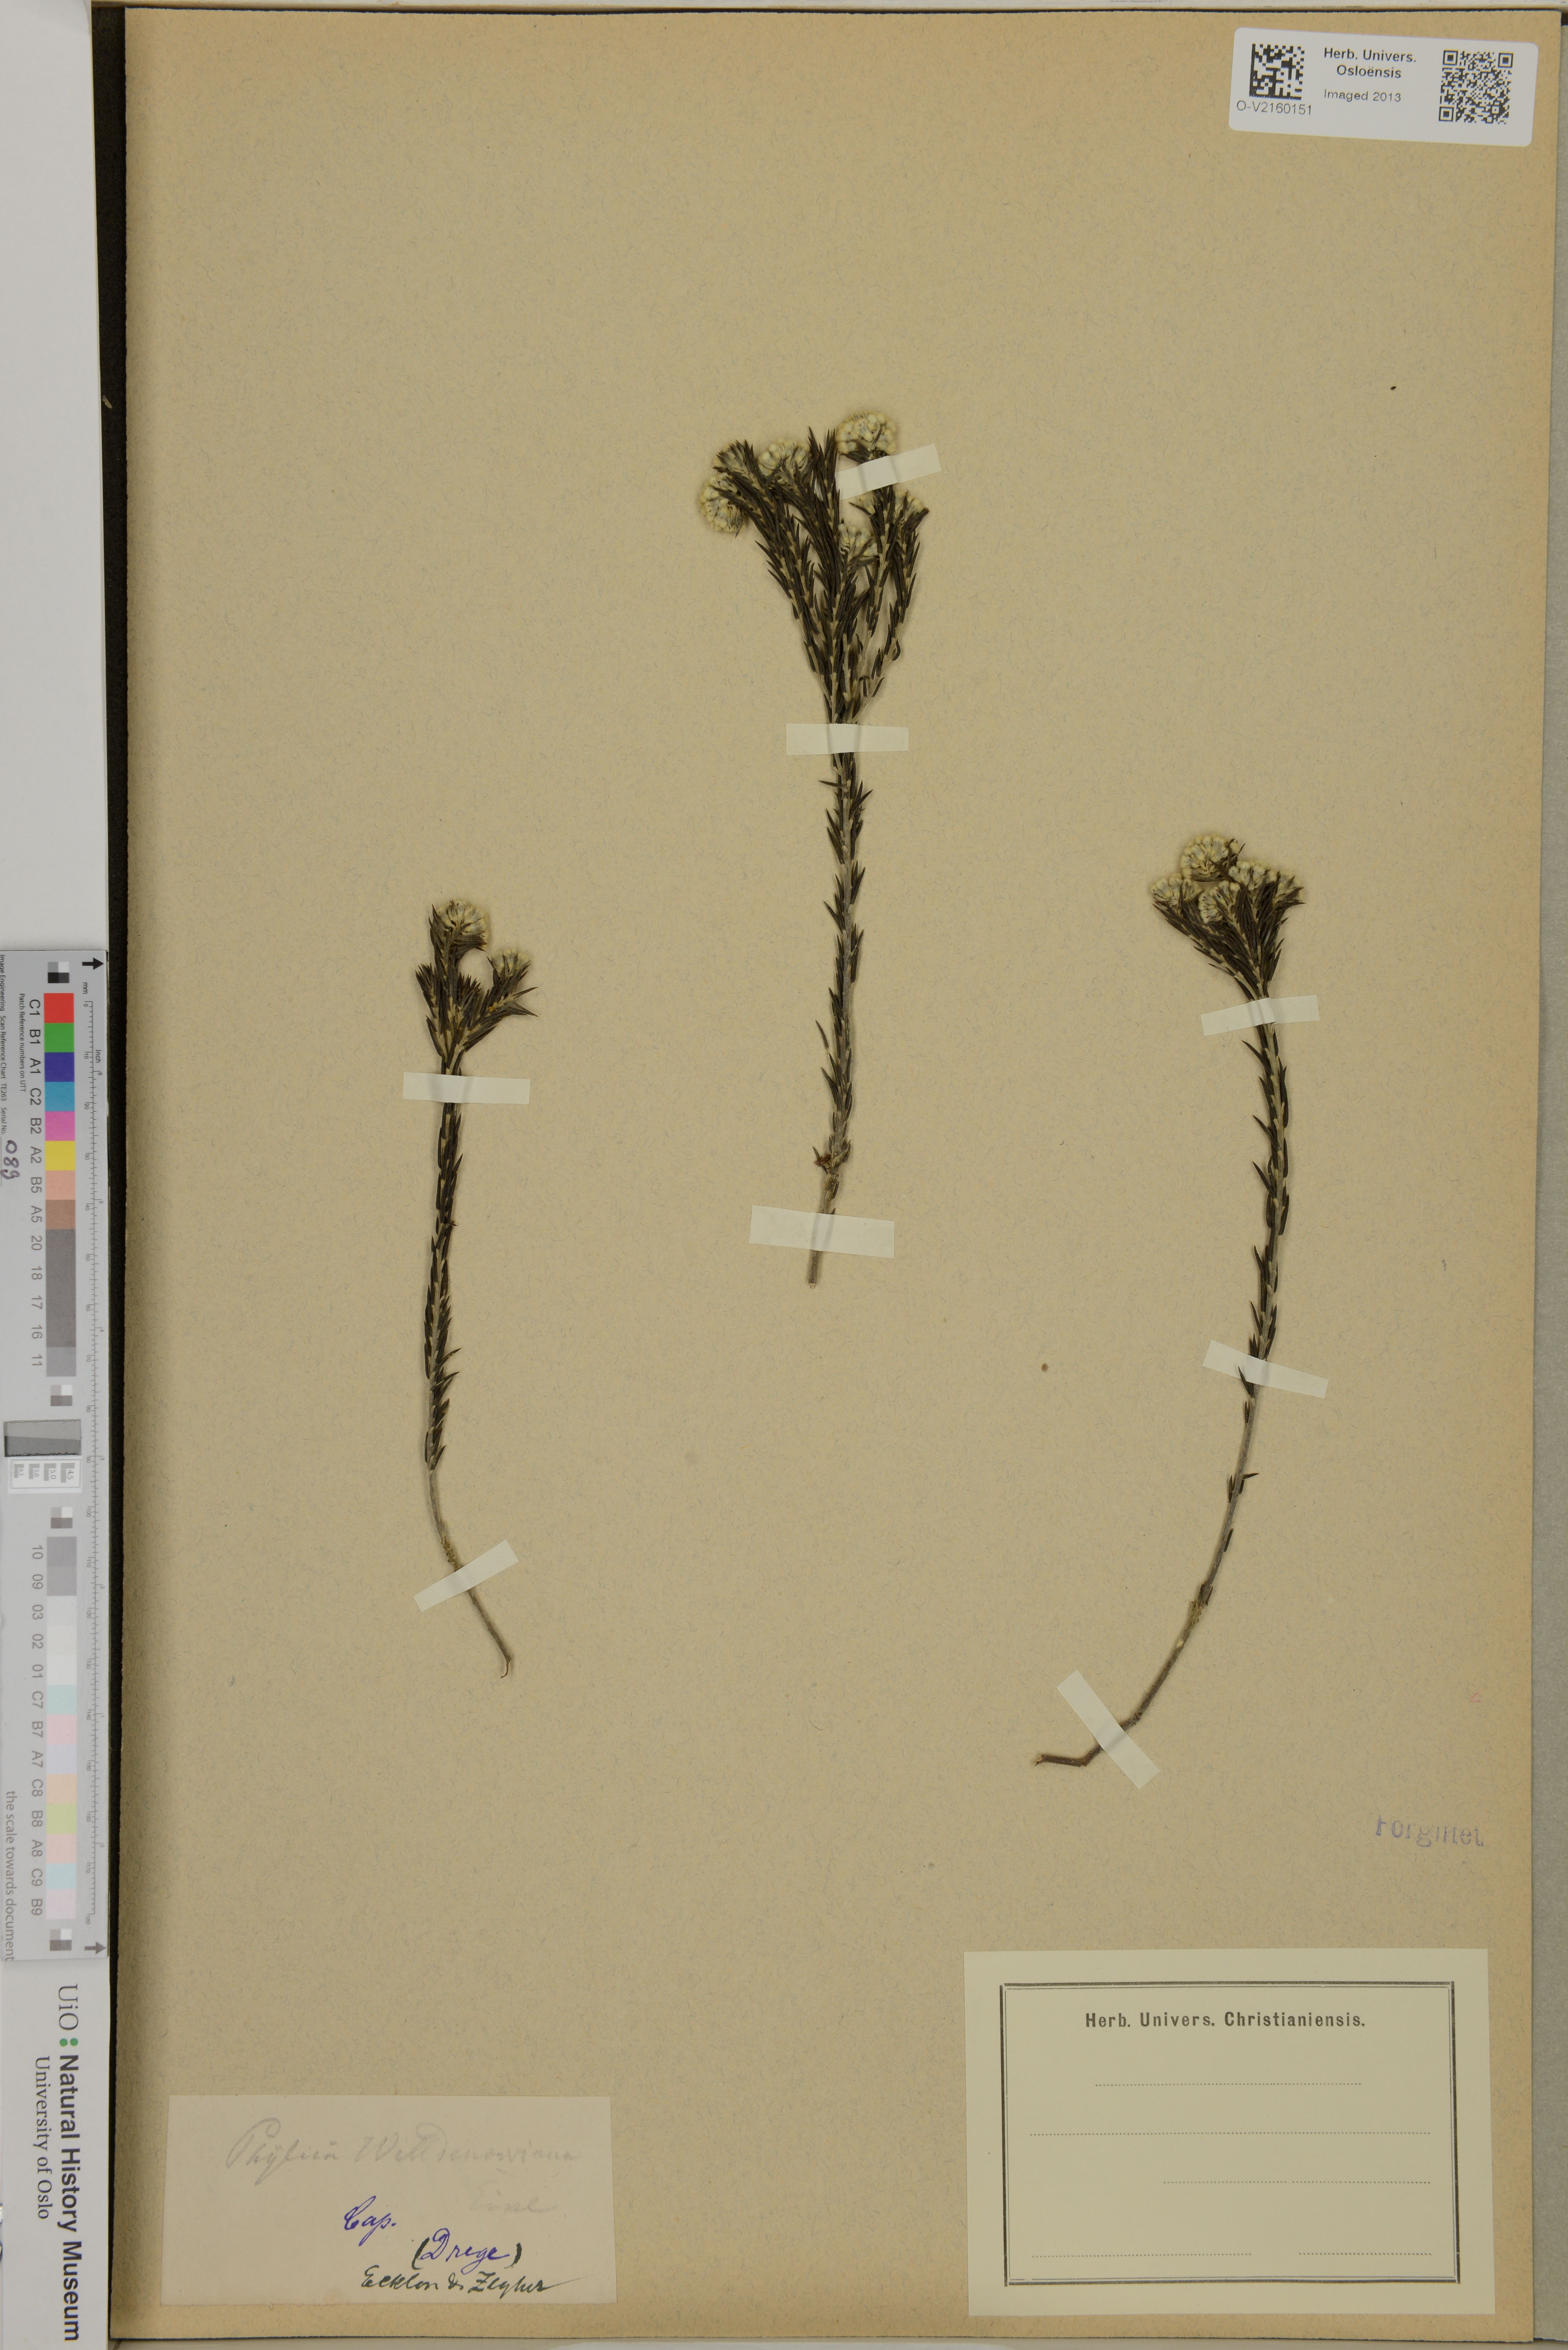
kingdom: Plantae
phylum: Tracheophyta
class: Magnoliopsida
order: Rosales
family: Rhamnaceae
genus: Phylica
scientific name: Phylica willdenowiana
